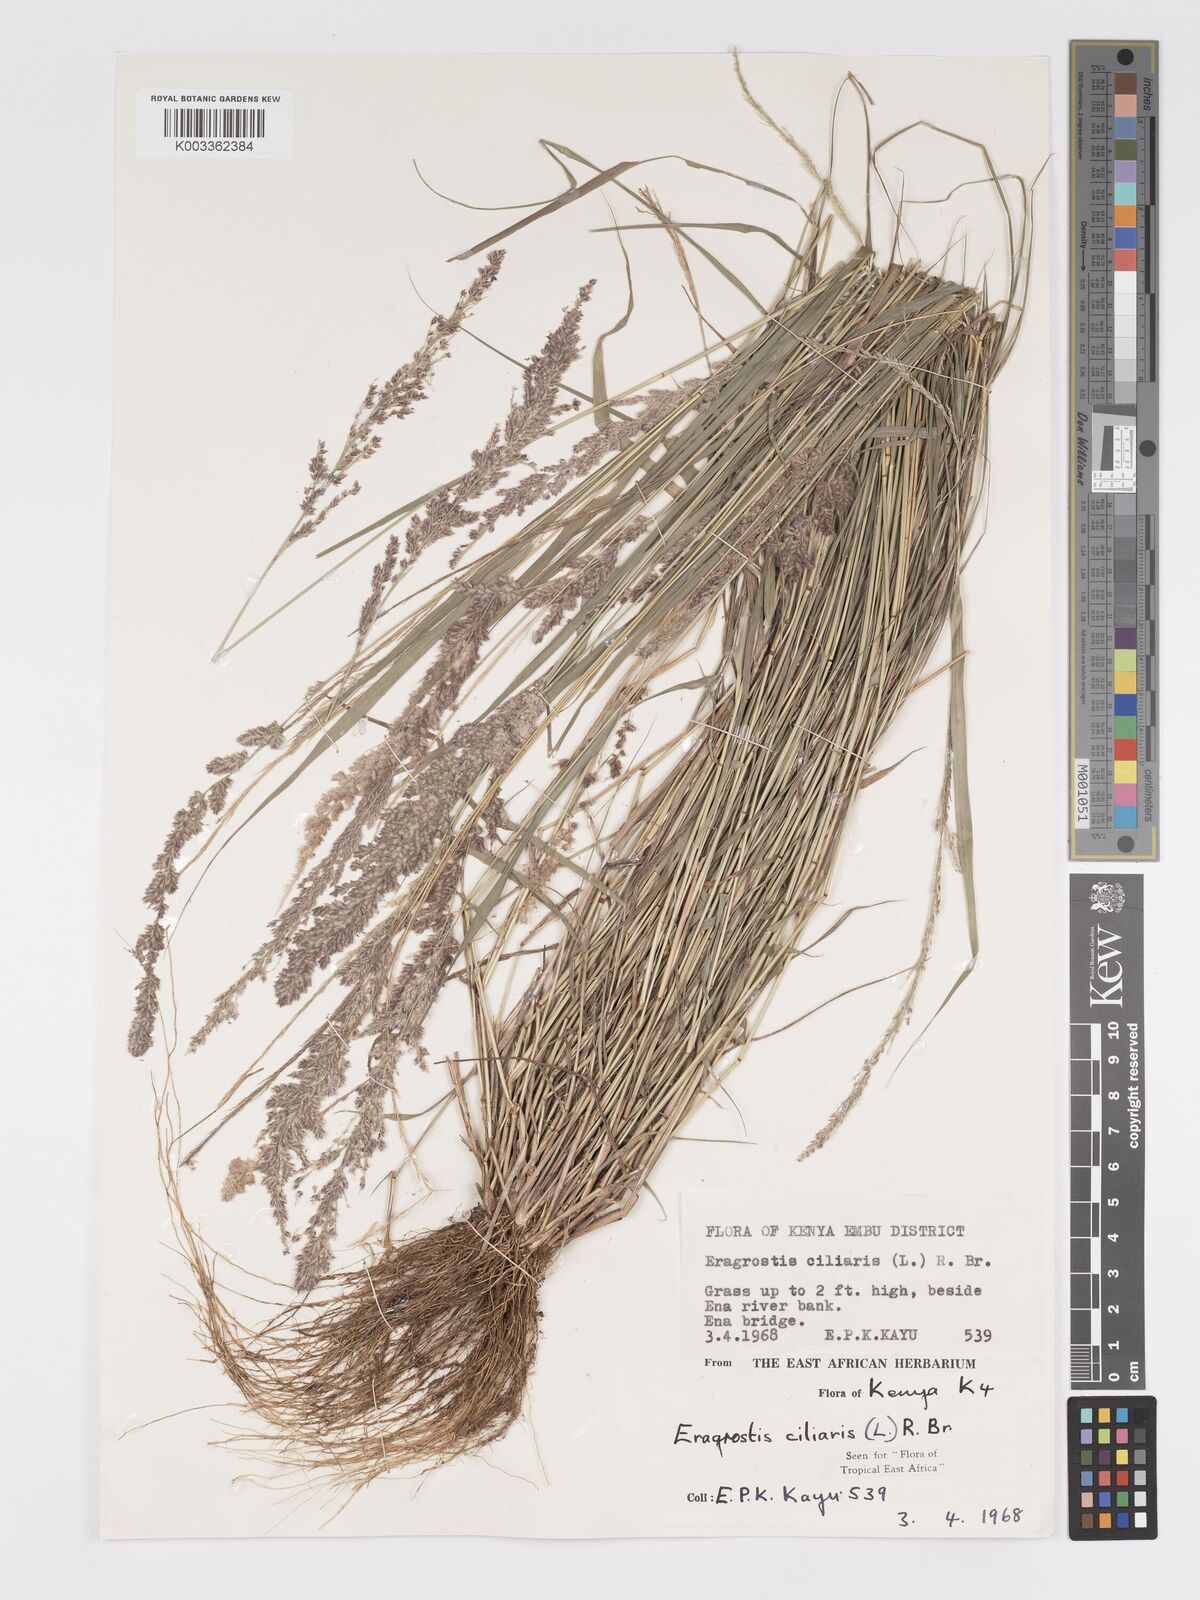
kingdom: Plantae
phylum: Tracheophyta
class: Liliopsida
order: Poales
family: Poaceae
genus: Eragrostis
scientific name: Eragrostis ciliaris
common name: Gophertail lovegrass
